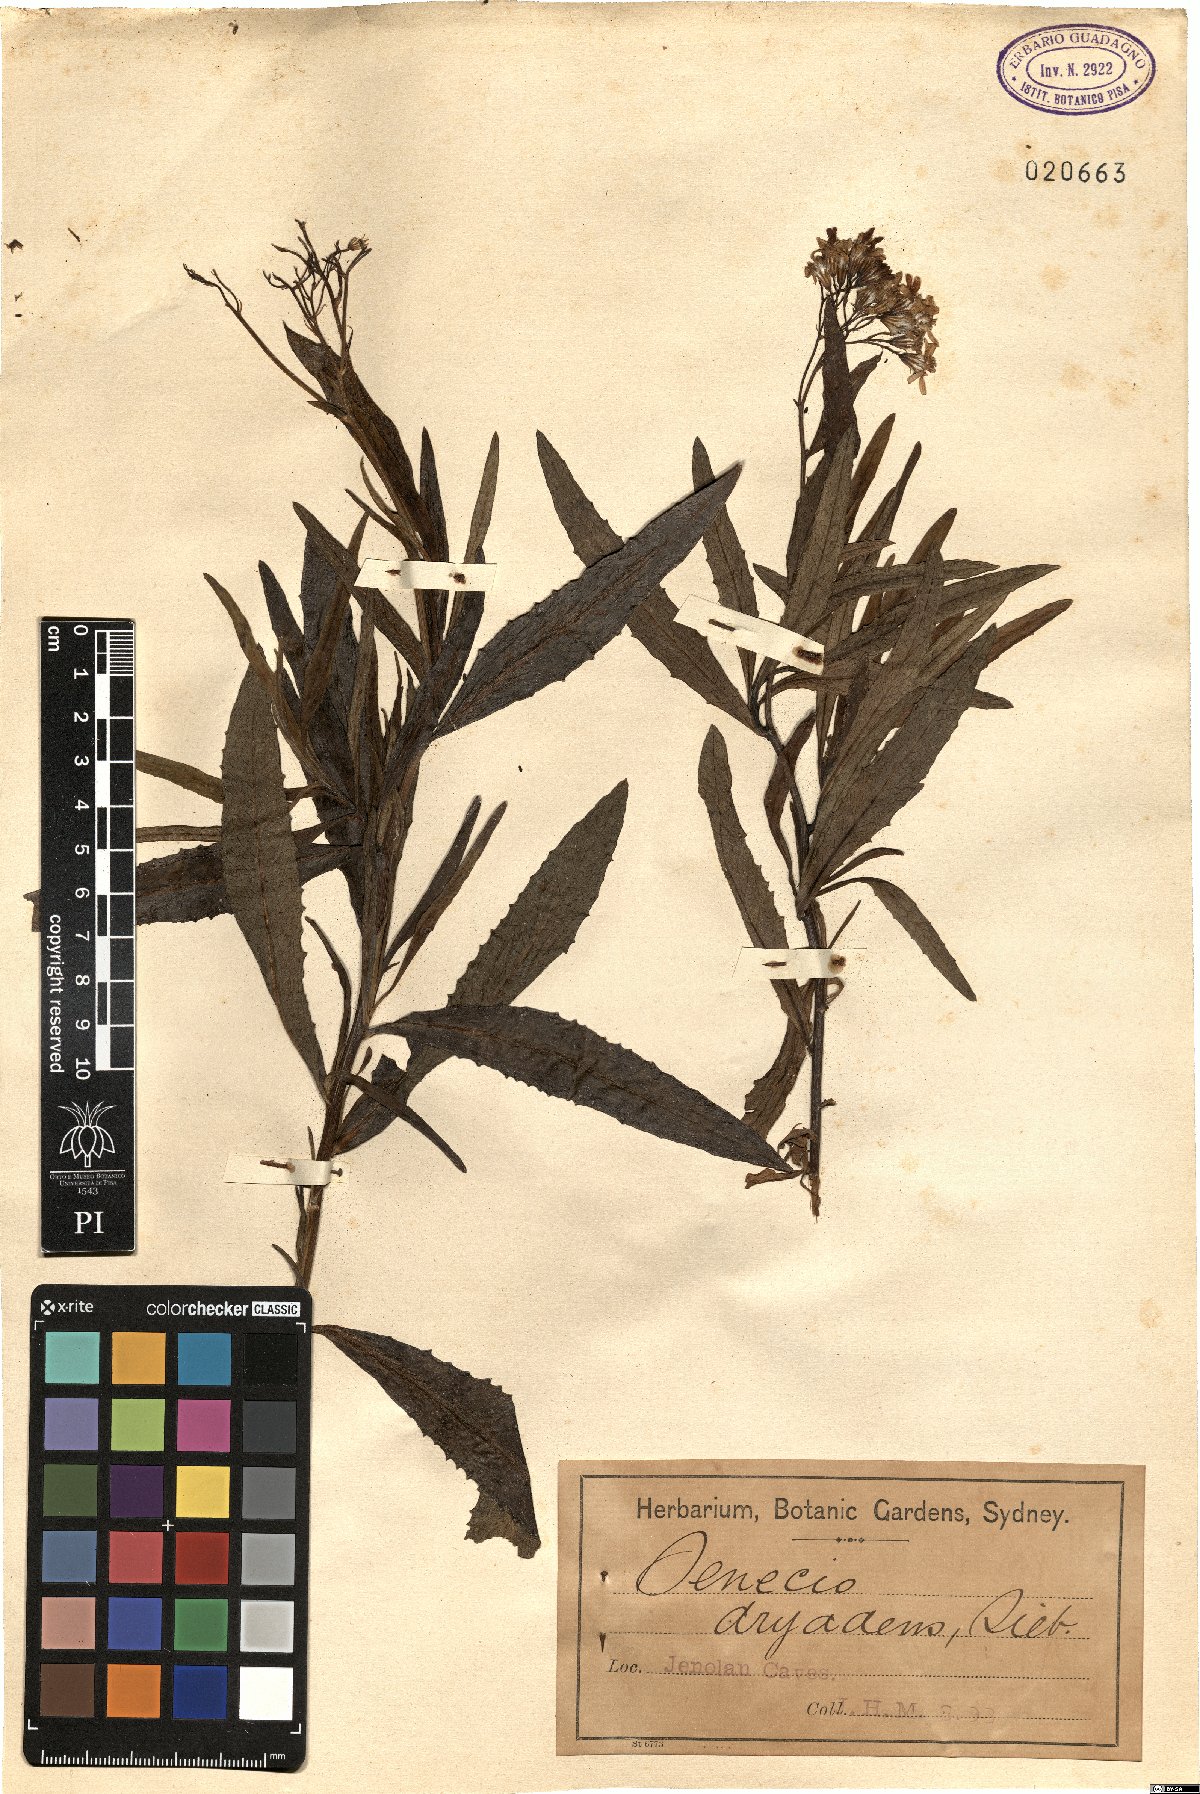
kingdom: Plantae
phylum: Tracheophyta
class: Magnoliopsida
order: Asterales
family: Asteraceae
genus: Senecio
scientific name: Senecio linearifolius
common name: Fireweed groundsel
